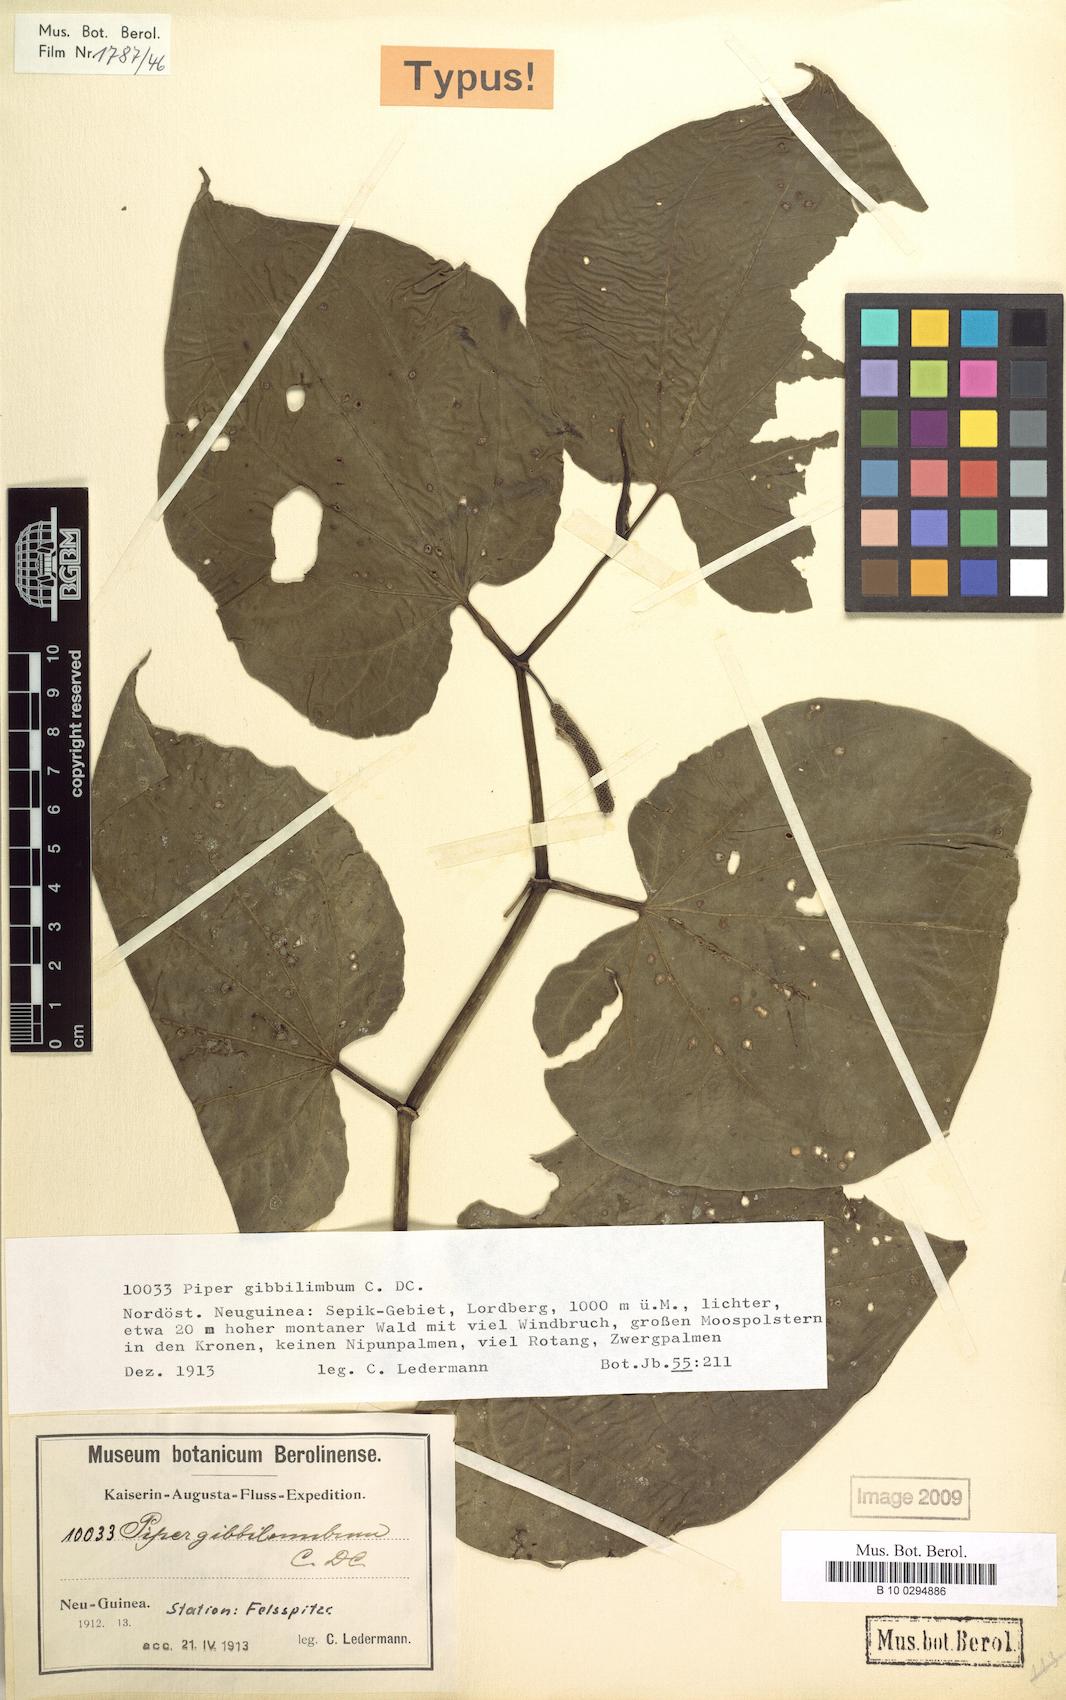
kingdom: Plantae
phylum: Tracheophyta
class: Magnoliopsida
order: Piperales
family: Piperaceae
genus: Piper
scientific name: Piper gibbilimbum
